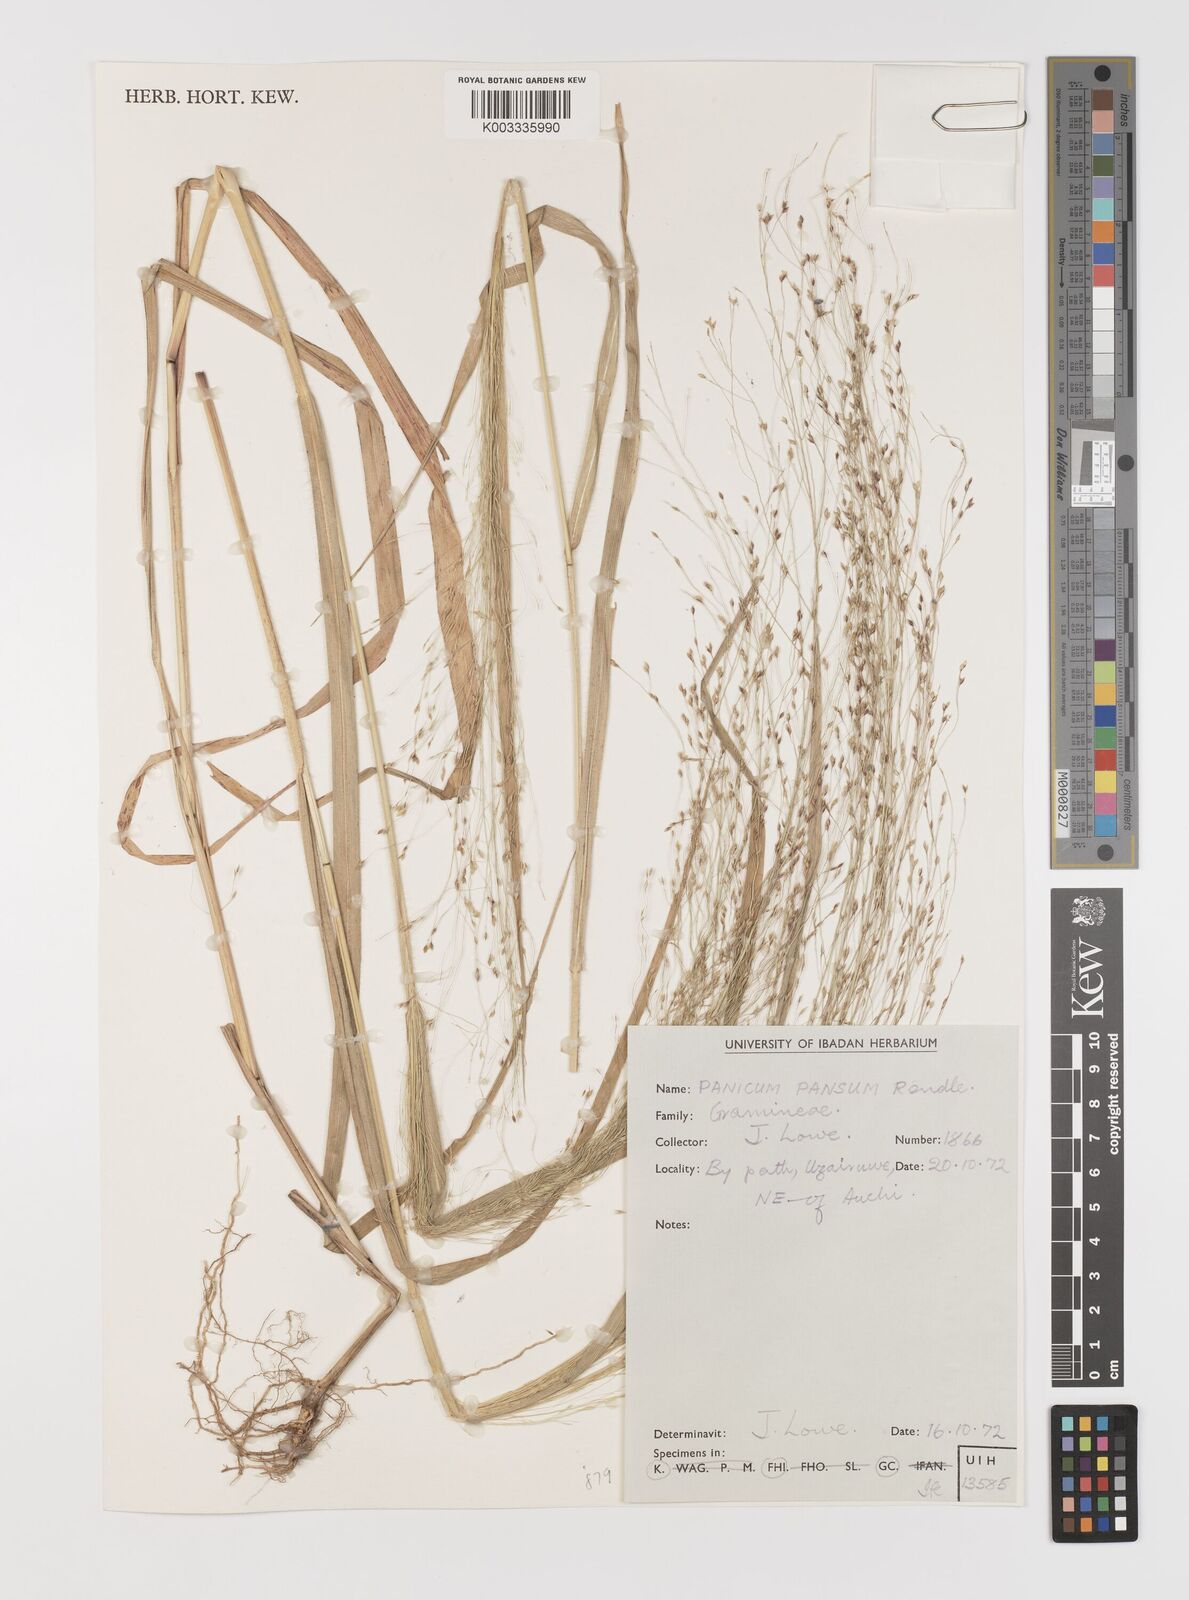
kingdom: Plantae
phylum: Tracheophyta
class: Liliopsida
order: Poales
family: Poaceae
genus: Panicum
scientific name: Panicum pansum
